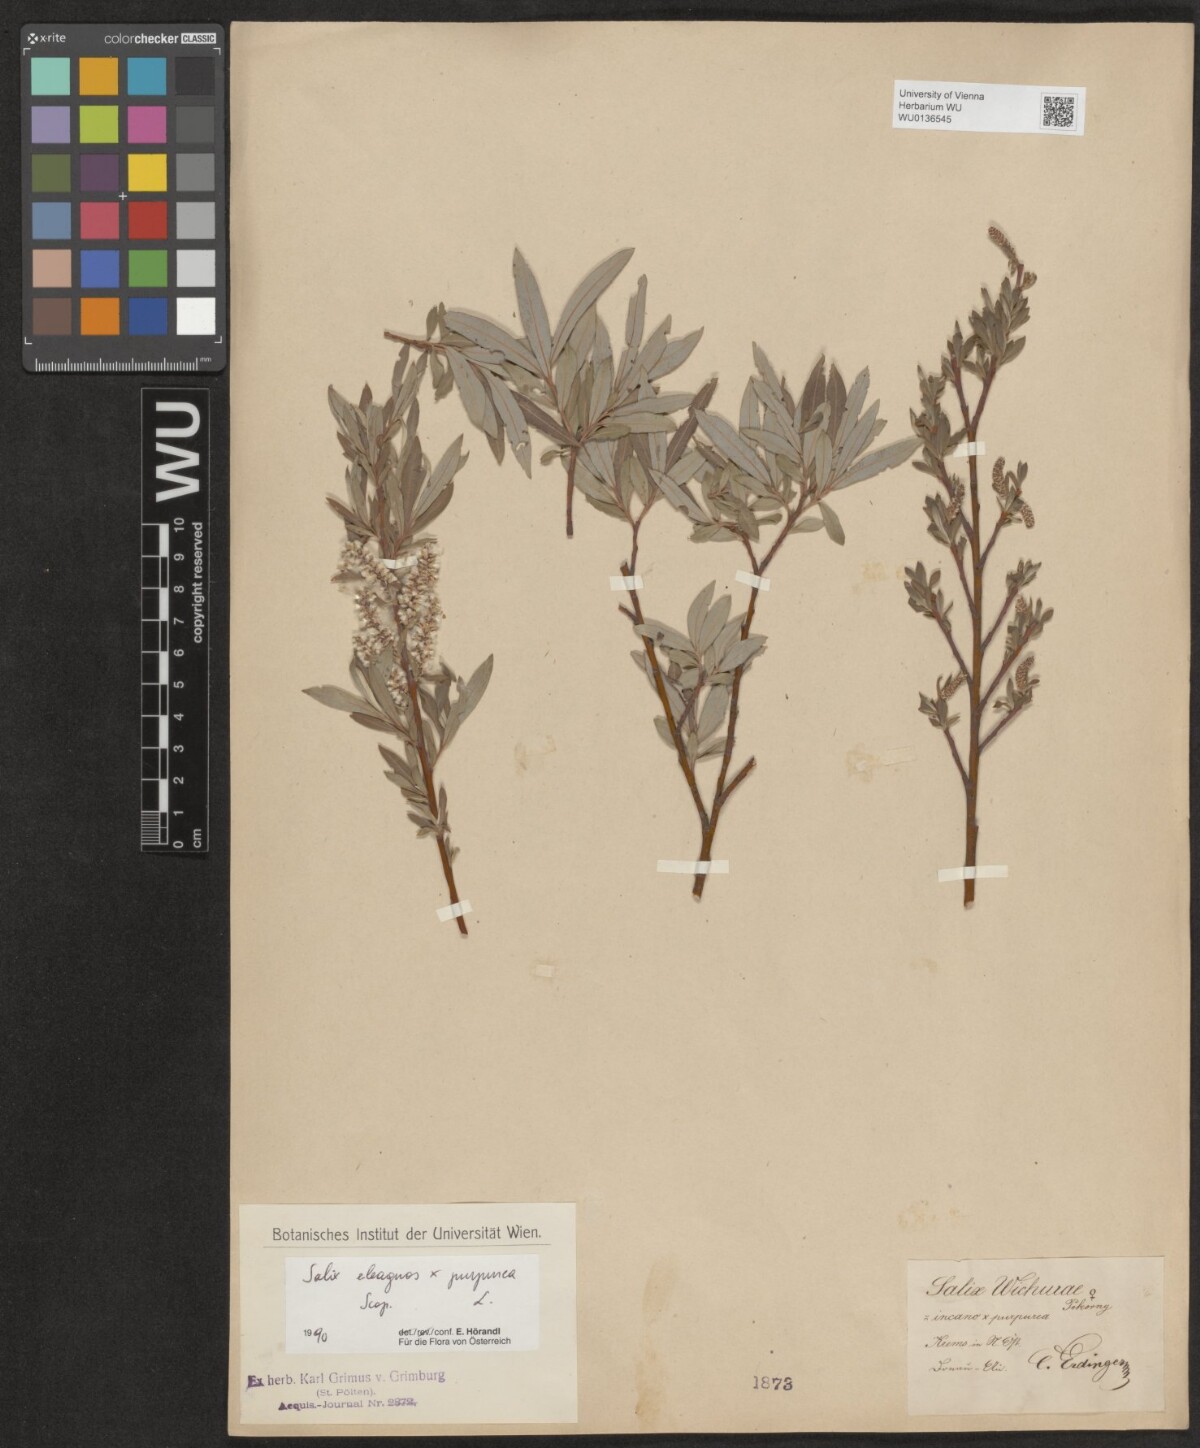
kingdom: Plantae
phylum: Tracheophyta
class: Magnoliopsida
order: Malpighiales
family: Salicaceae
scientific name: Salicaceae
